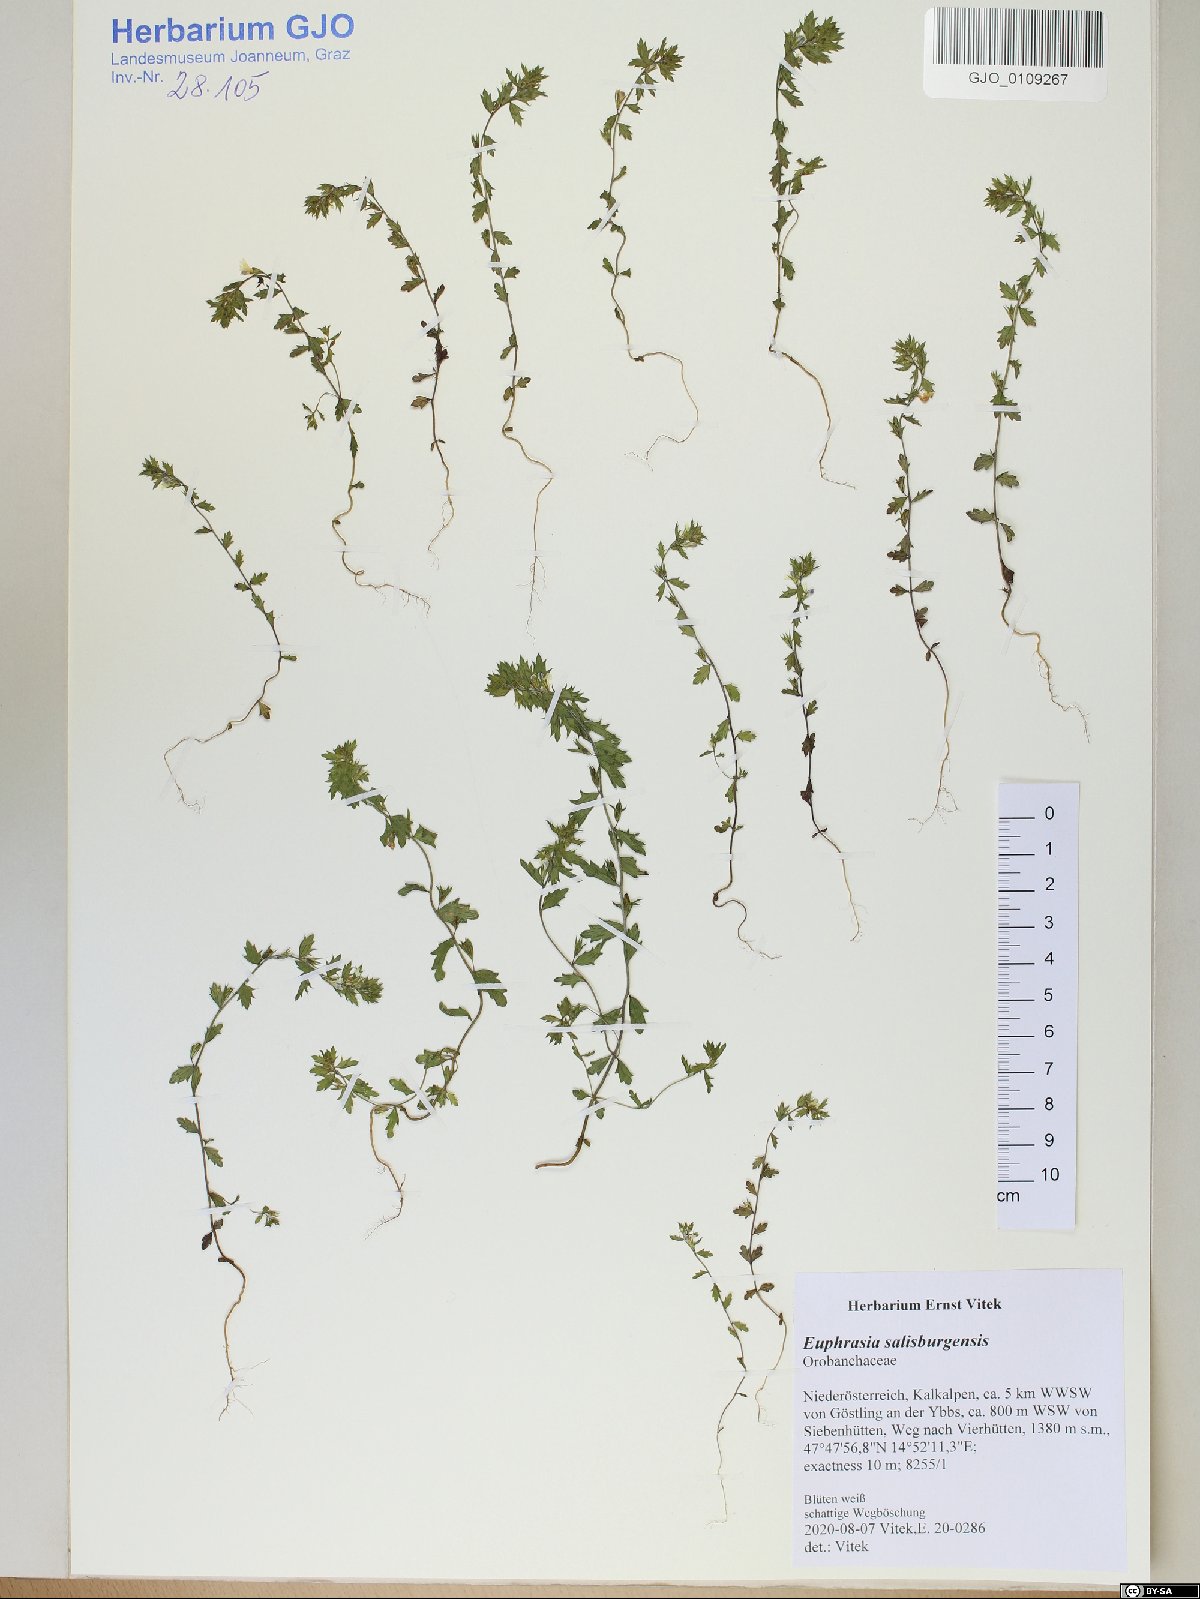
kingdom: Plantae
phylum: Tracheophyta
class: Magnoliopsida
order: Lamiales
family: Orobanchaceae
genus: Euphrasia
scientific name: Euphrasia salisburgensis
